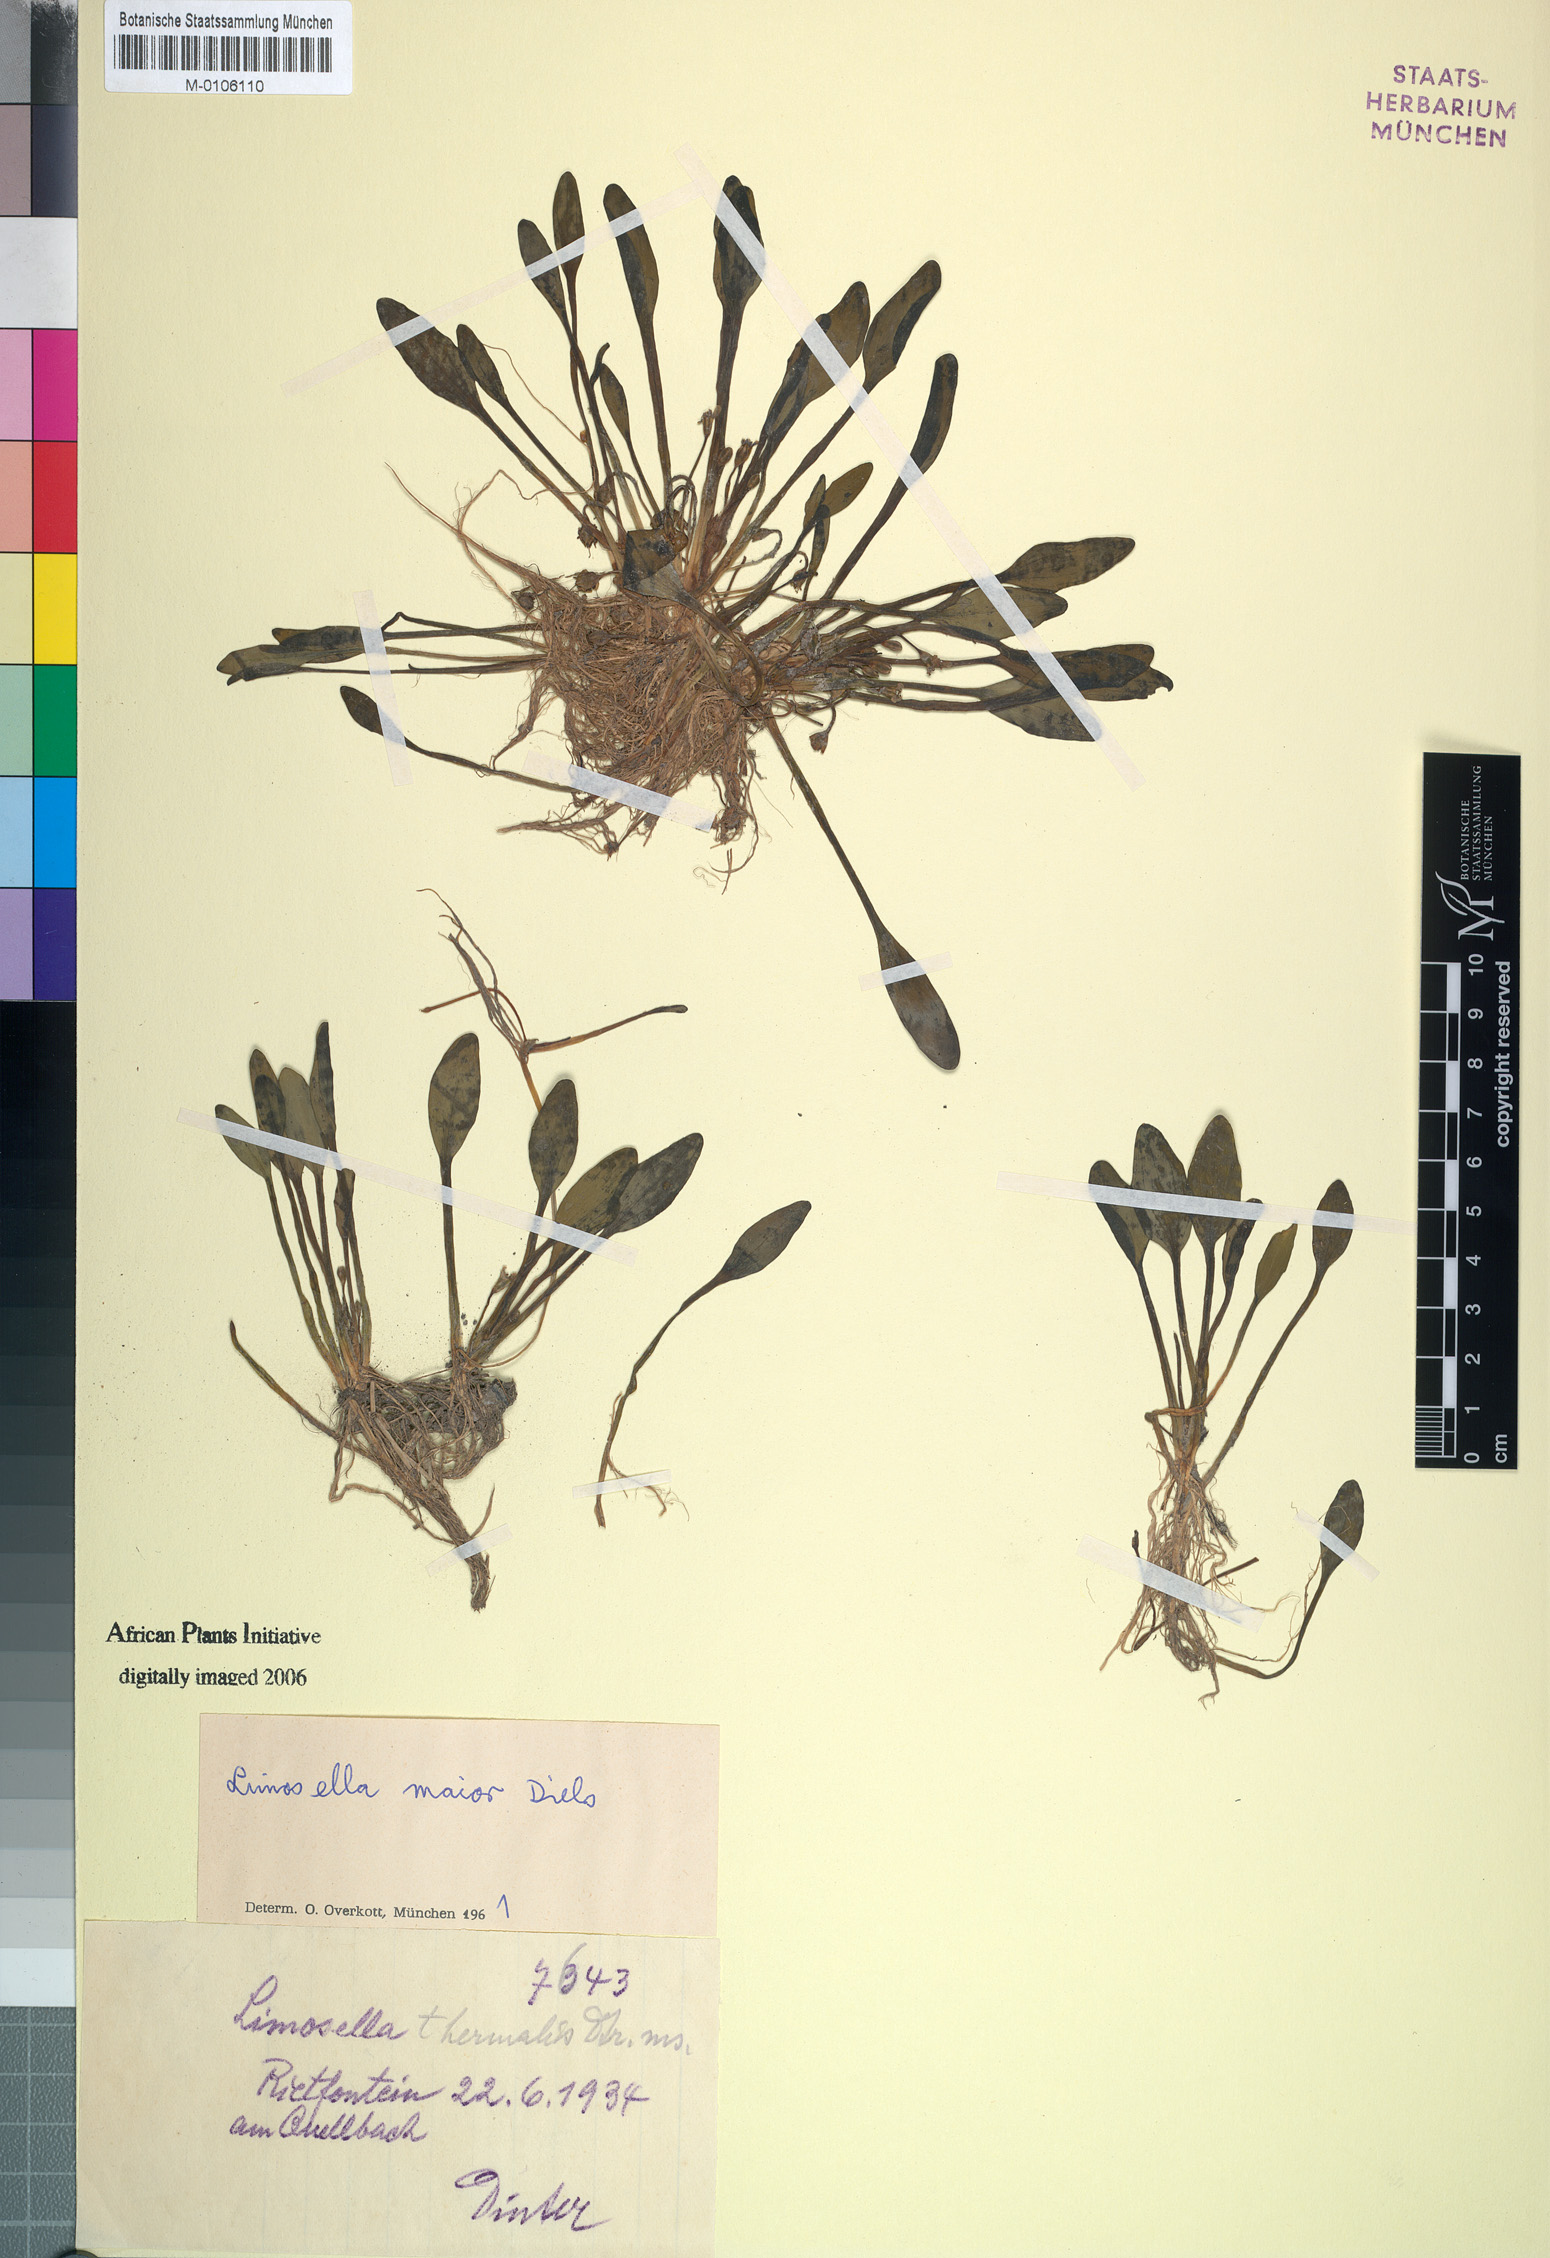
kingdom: Plantae
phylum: Tracheophyta
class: Magnoliopsida
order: Lamiales
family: Scrophulariaceae
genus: Limosella
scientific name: Limosella major
